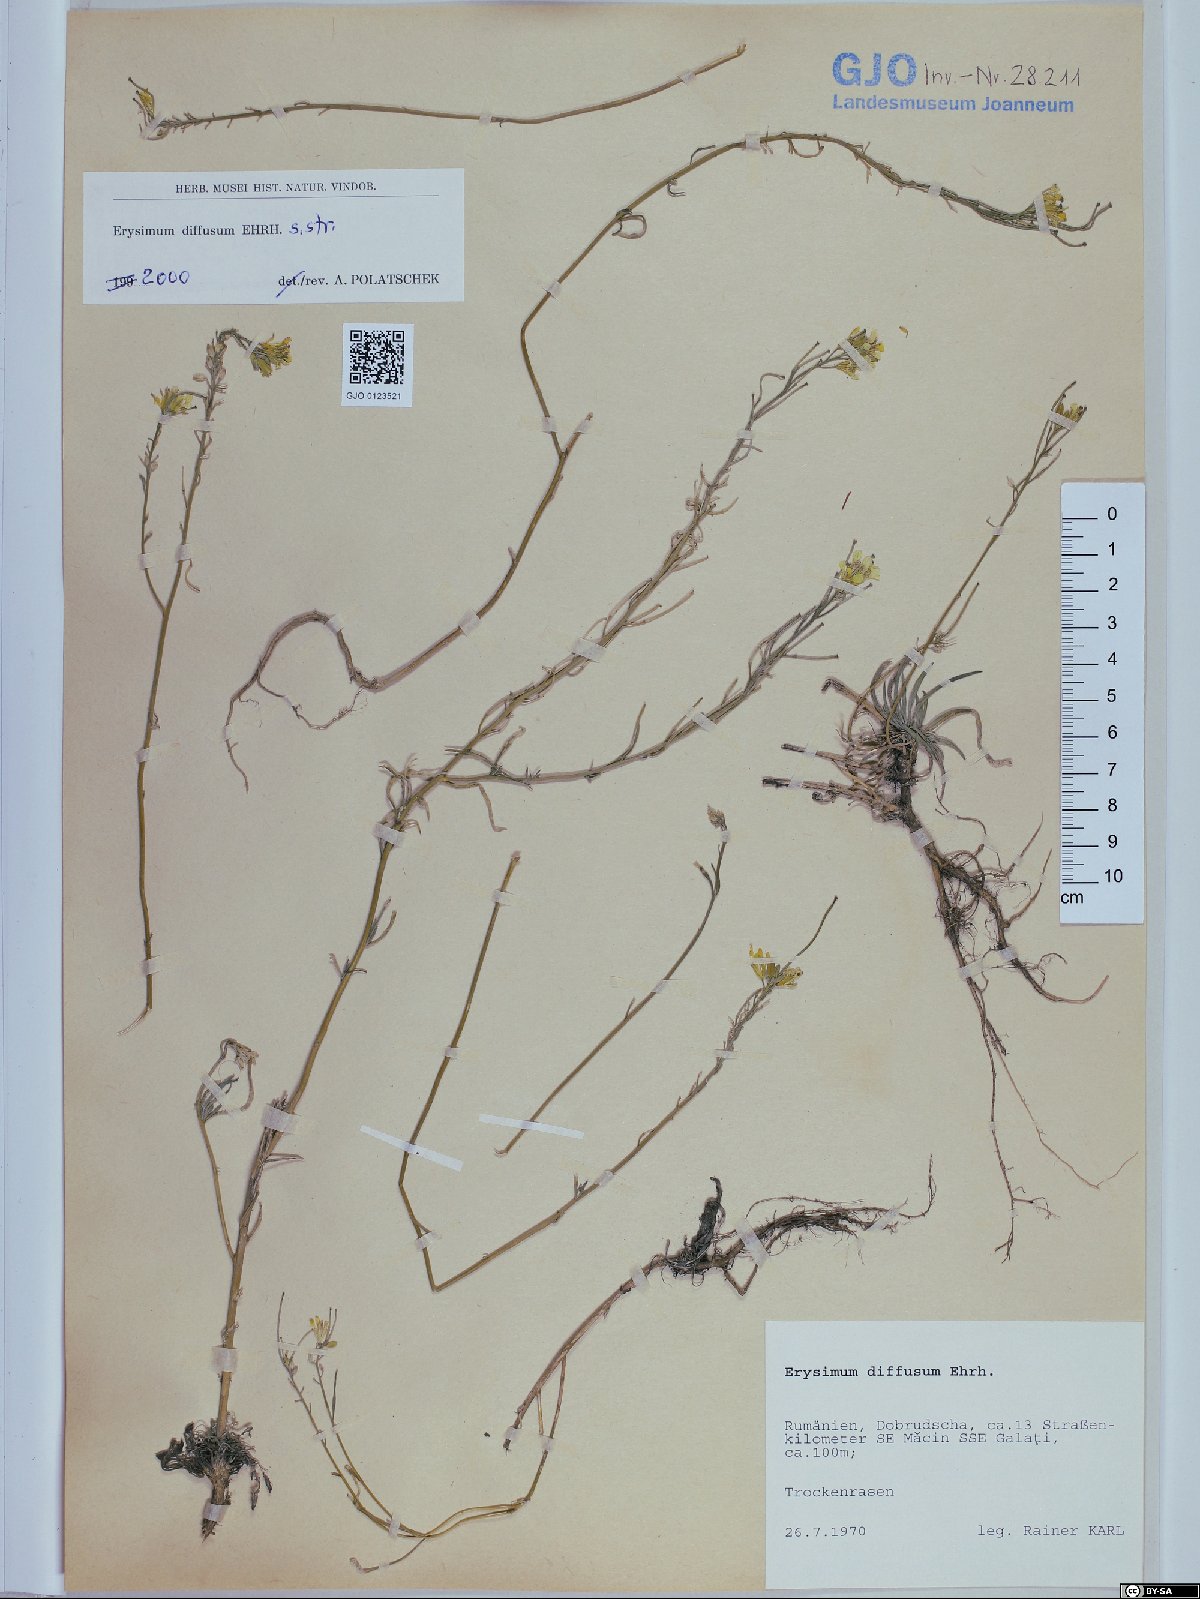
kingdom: Plantae
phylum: Tracheophyta
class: Magnoliopsida
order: Brassicales
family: Brassicaceae
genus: Erysimum
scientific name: Erysimum diffusum
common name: Diffuse wallflower
